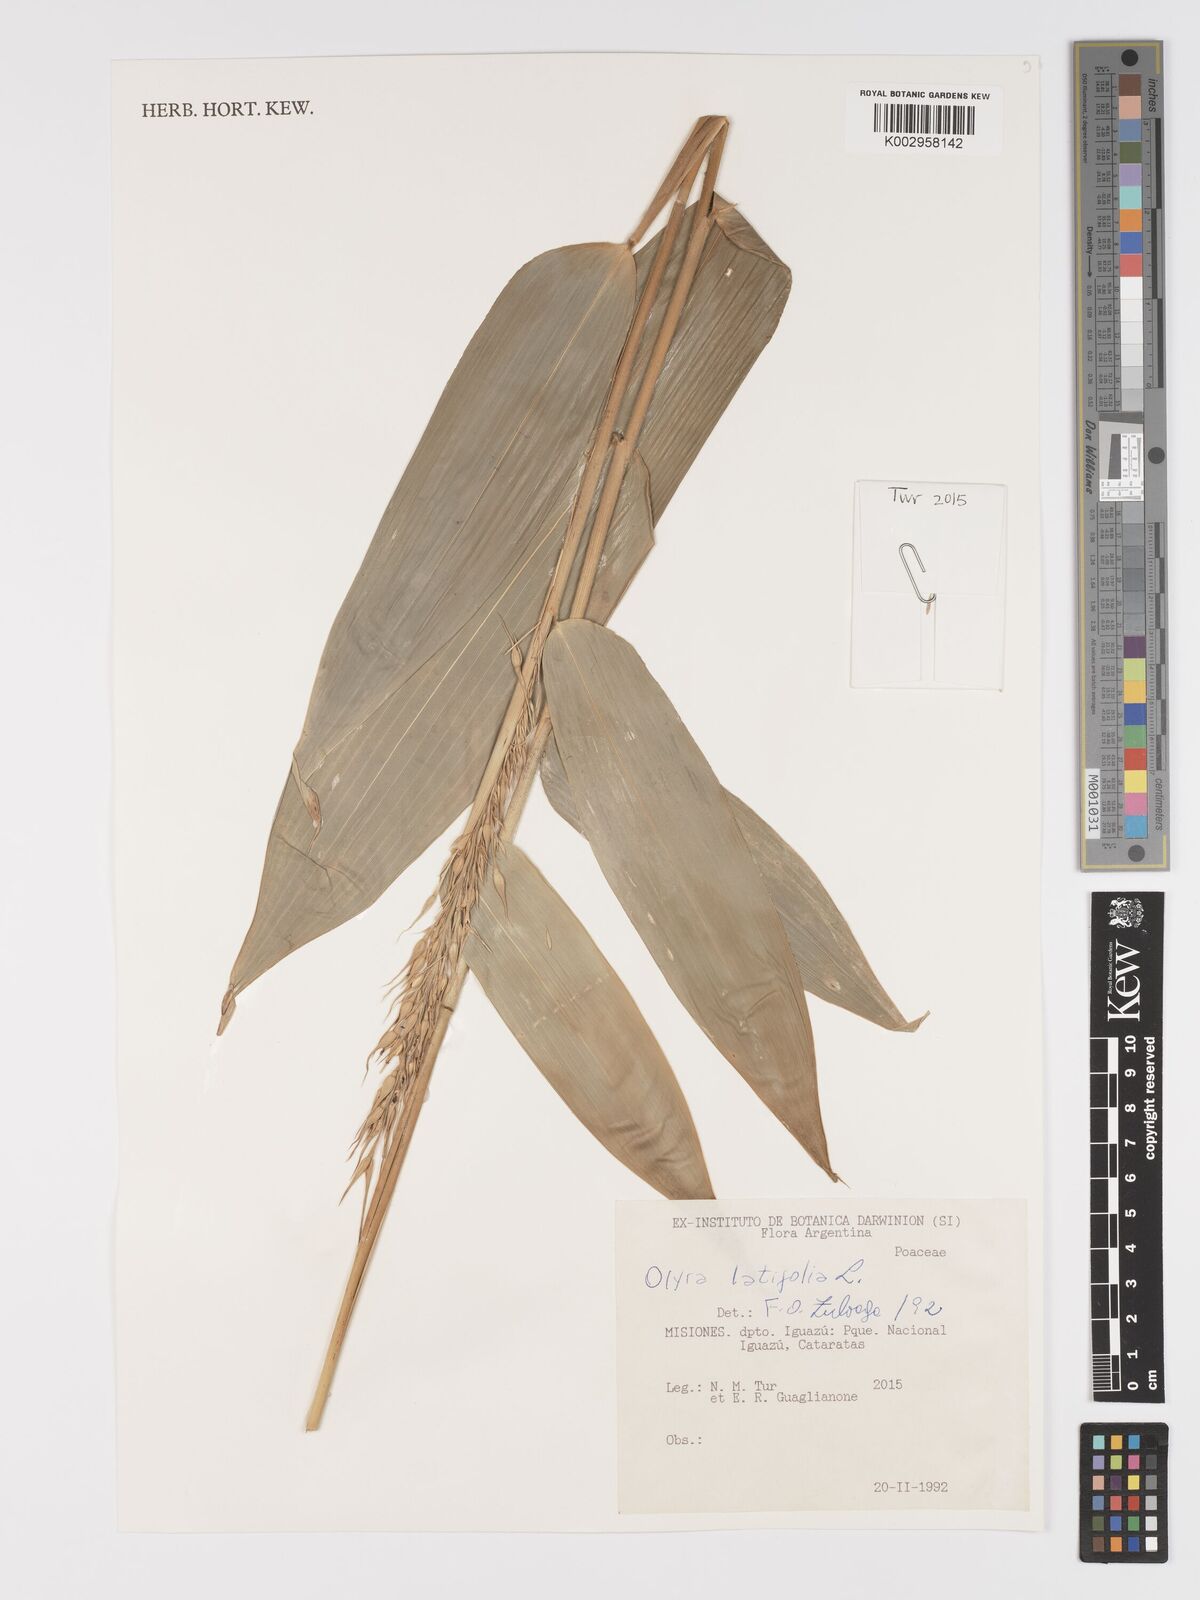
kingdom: Plantae
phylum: Tracheophyta
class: Liliopsida
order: Poales
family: Poaceae
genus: Olyra
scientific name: Olyra latifolia
